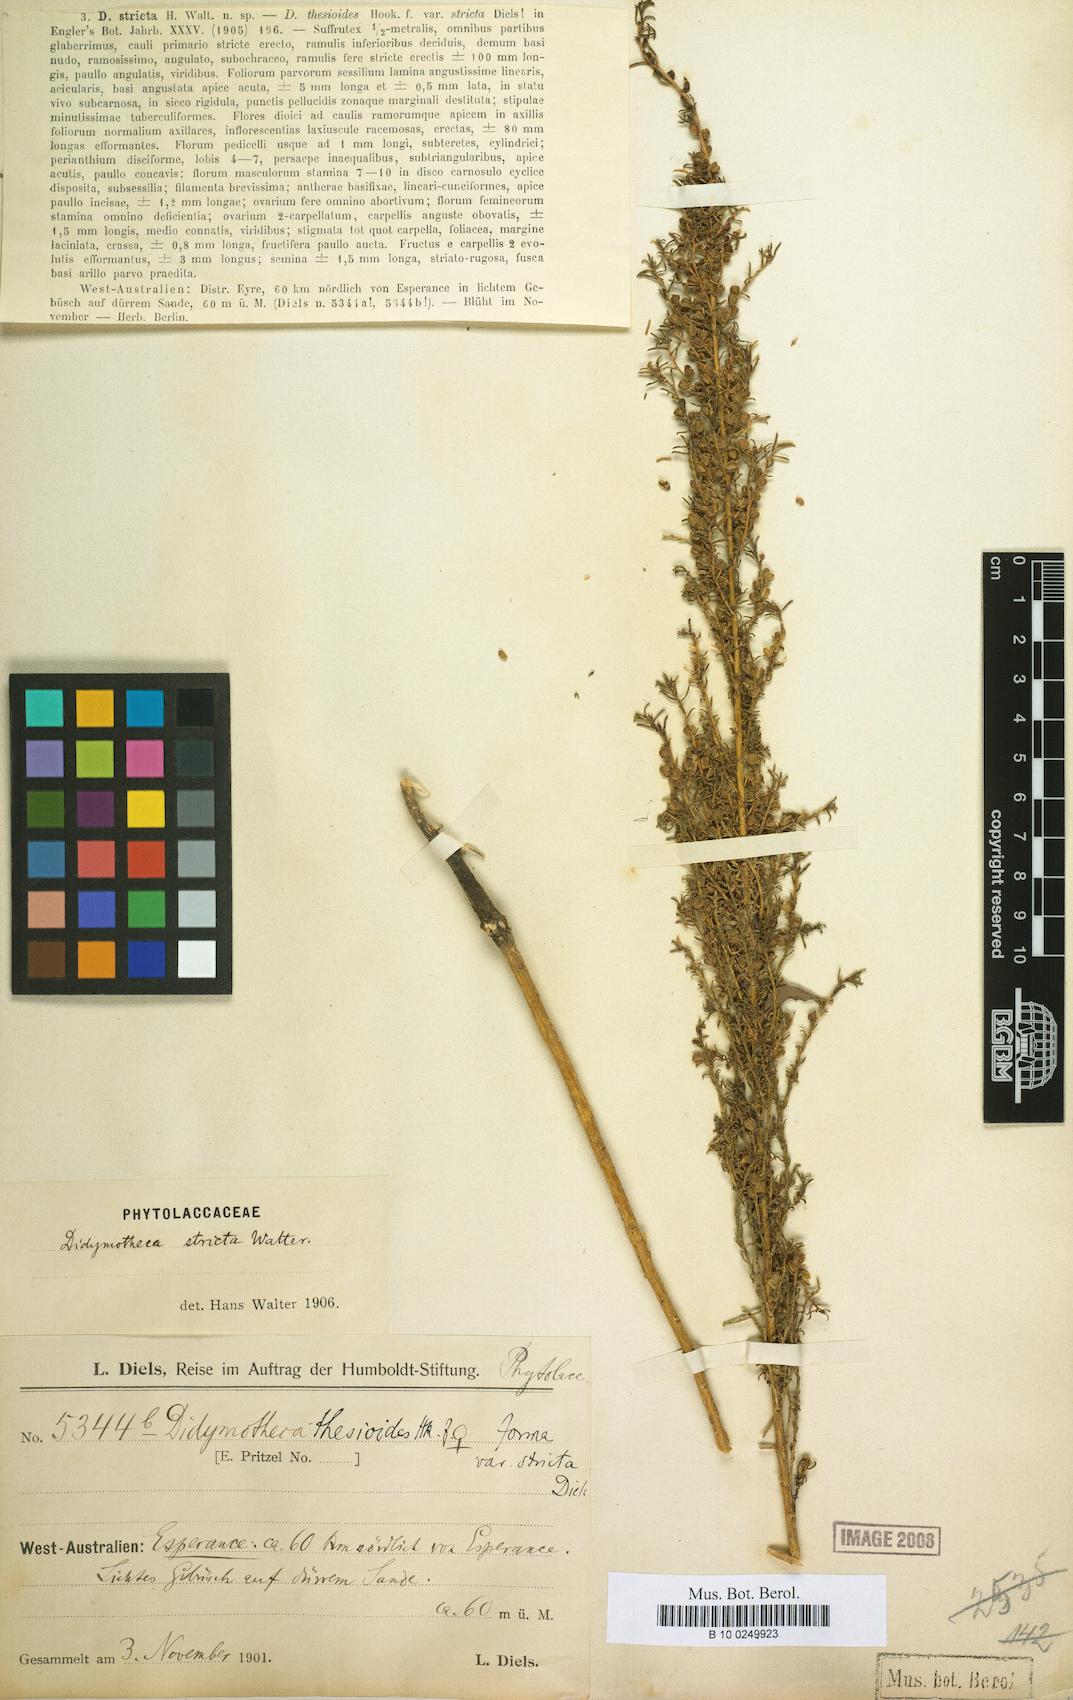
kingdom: Plantae
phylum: Tracheophyta
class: Magnoliopsida
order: Brassicales
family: Gyrostemonaceae
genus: Gyrostemon
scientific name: Gyrostemon
